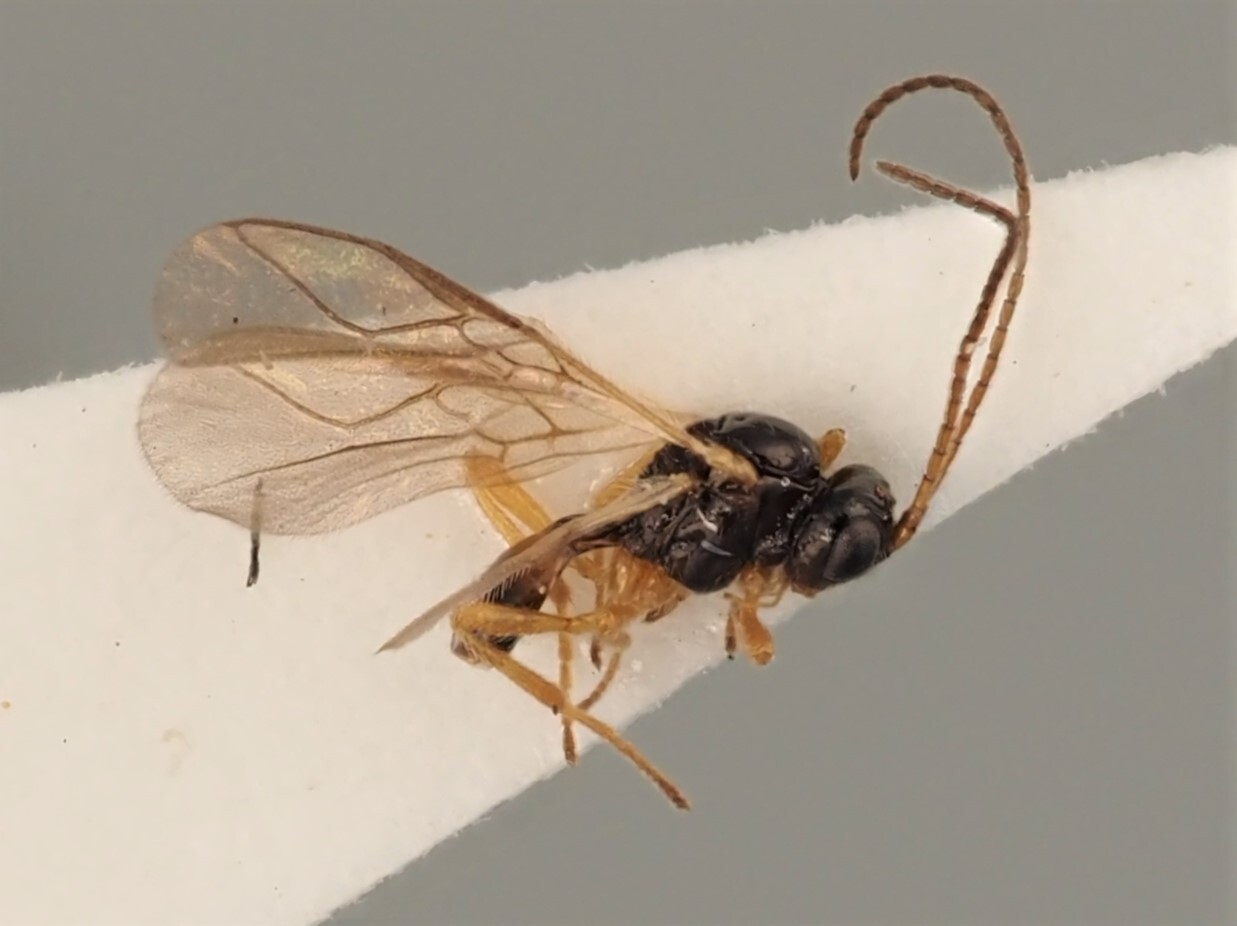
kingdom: Animalia
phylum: Arthropoda
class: Insecta
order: Hymenoptera
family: Braconidae
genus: Utetes
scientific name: Utetes ochropus
